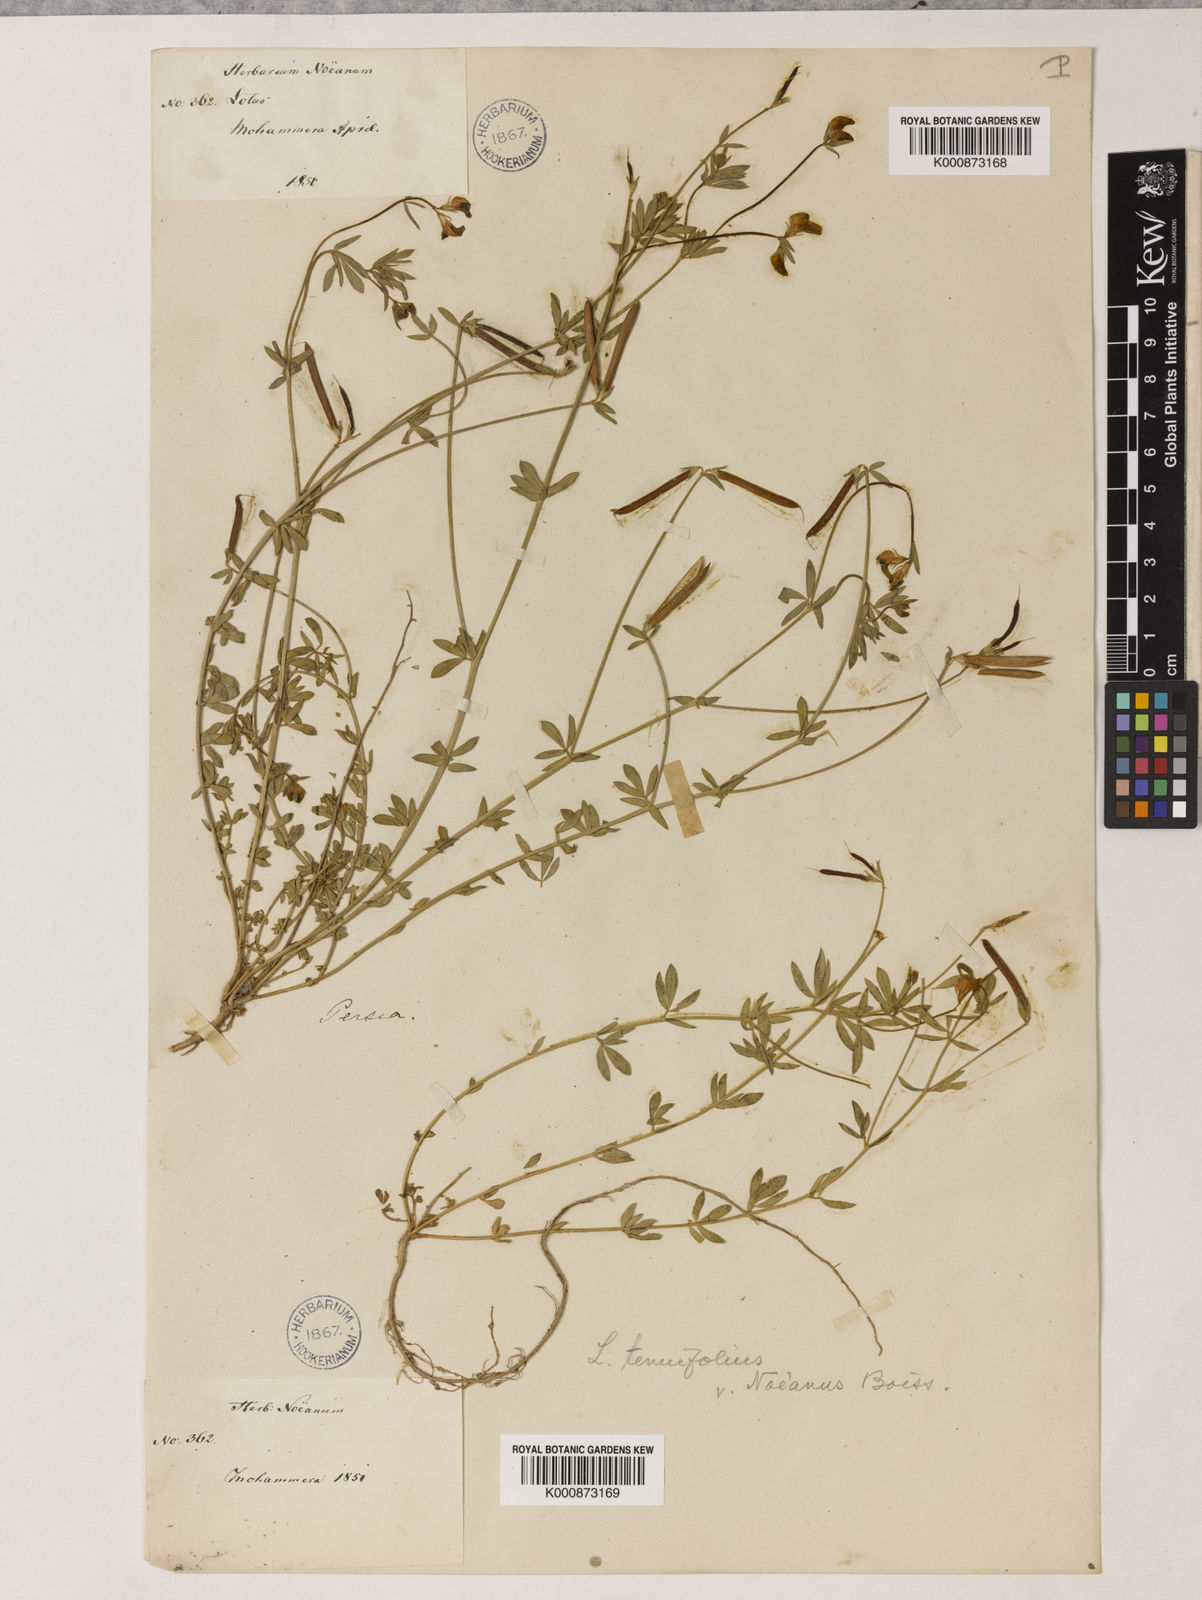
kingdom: Plantae
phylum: Tracheophyta
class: Magnoliopsida
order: Fabales
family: Fabaceae
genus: Psoralea
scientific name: Psoralea fascicularis
